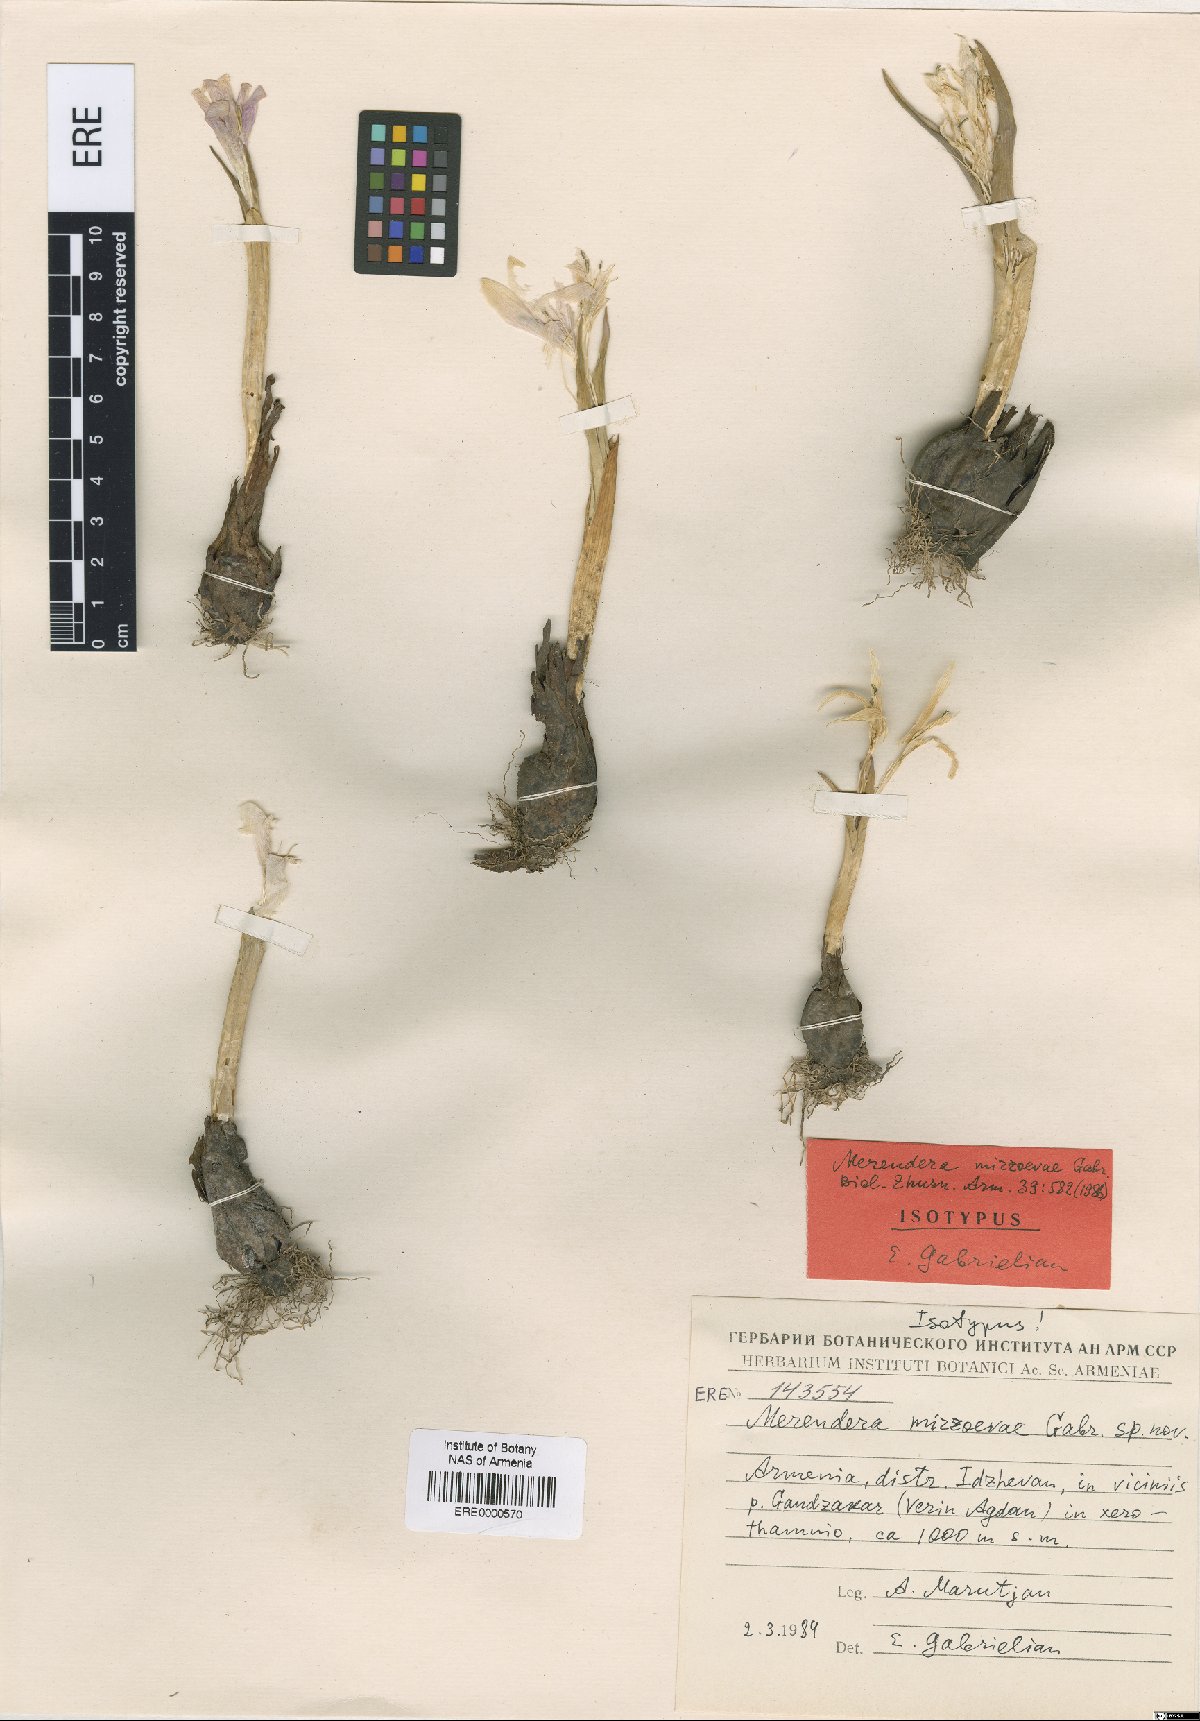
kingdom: Plantae
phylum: Tracheophyta
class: Liliopsida
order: Liliales
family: Colchicaceae
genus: Colchicum
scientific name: Colchicum trigynum
